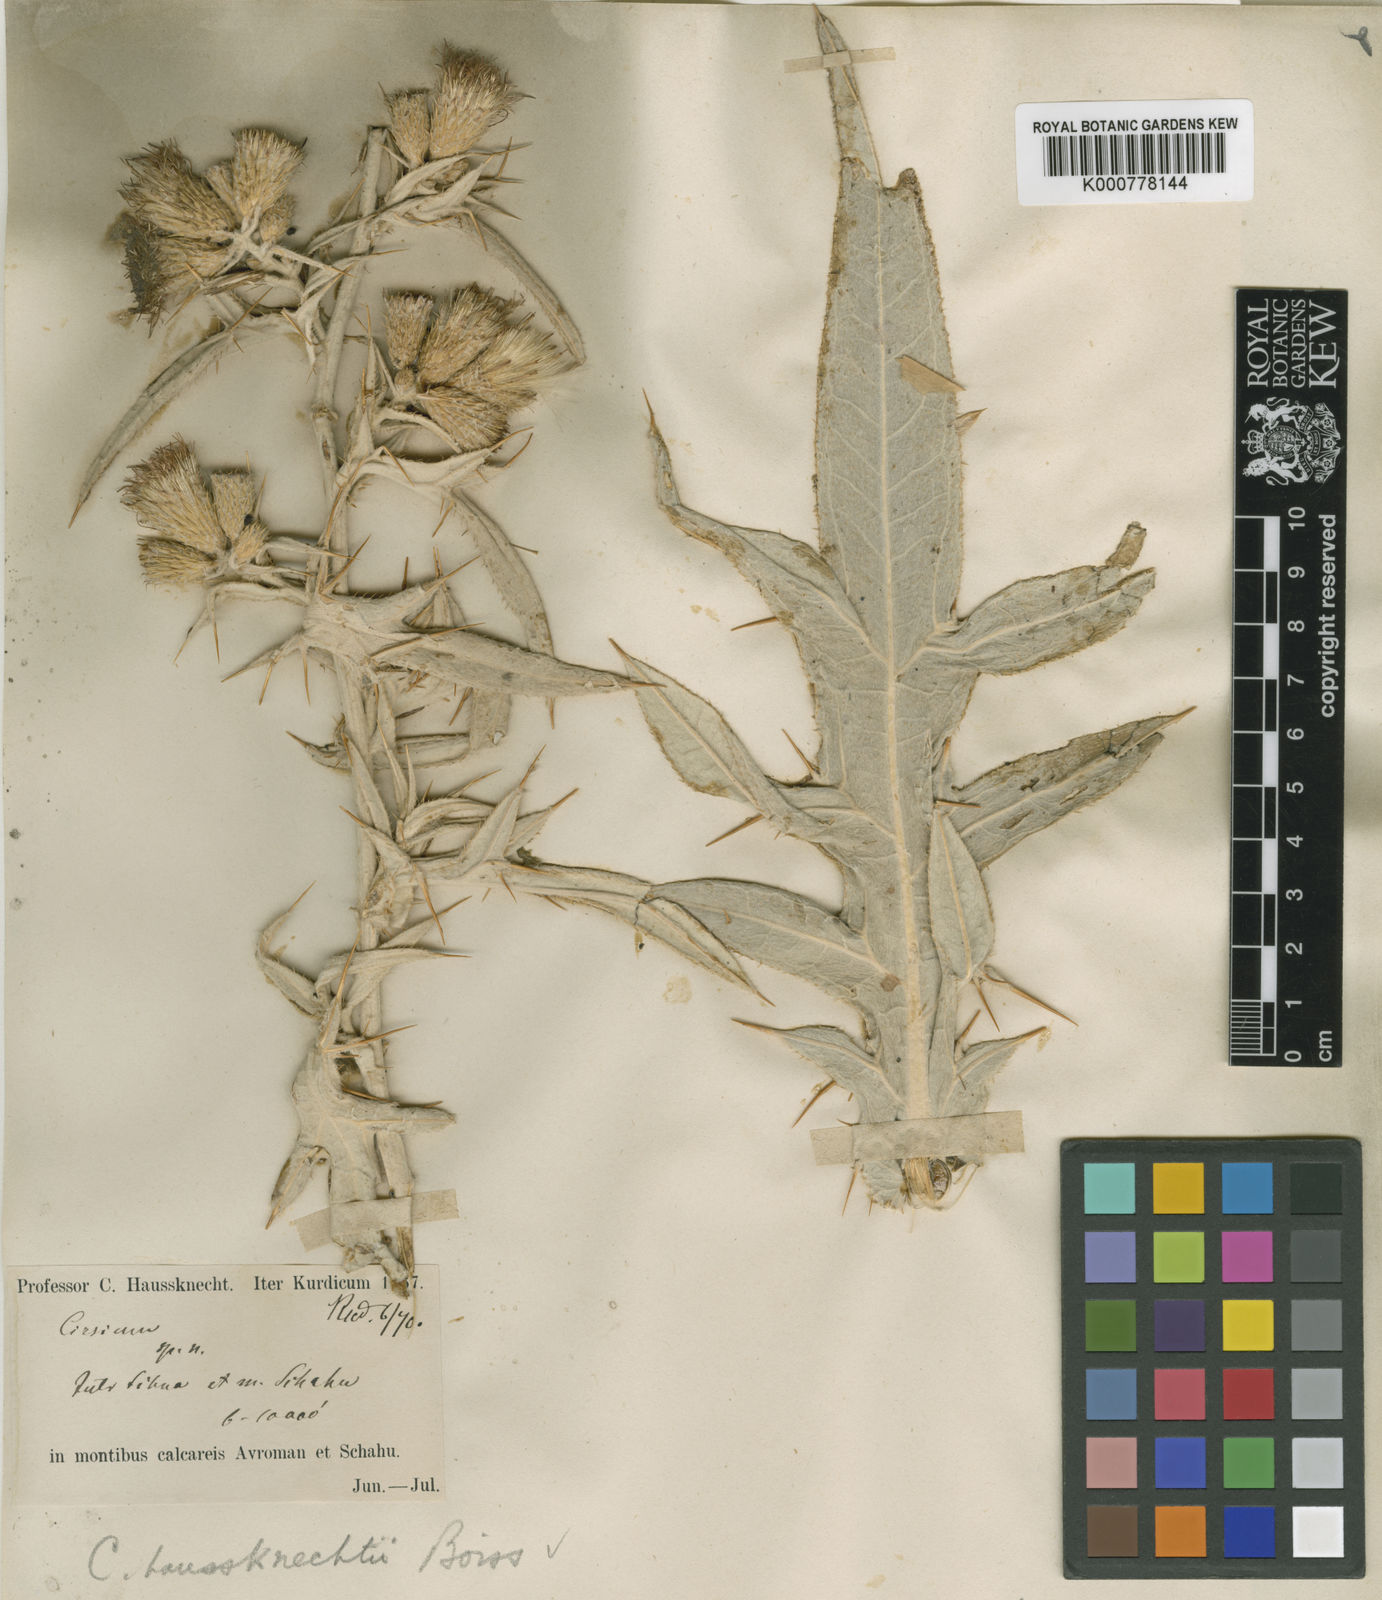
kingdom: Plantae
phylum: Tracheophyta
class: Magnoliopsida
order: Asterales
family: Asteraceae
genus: Lophiolepis
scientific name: Lophiolepis haussknechtii
